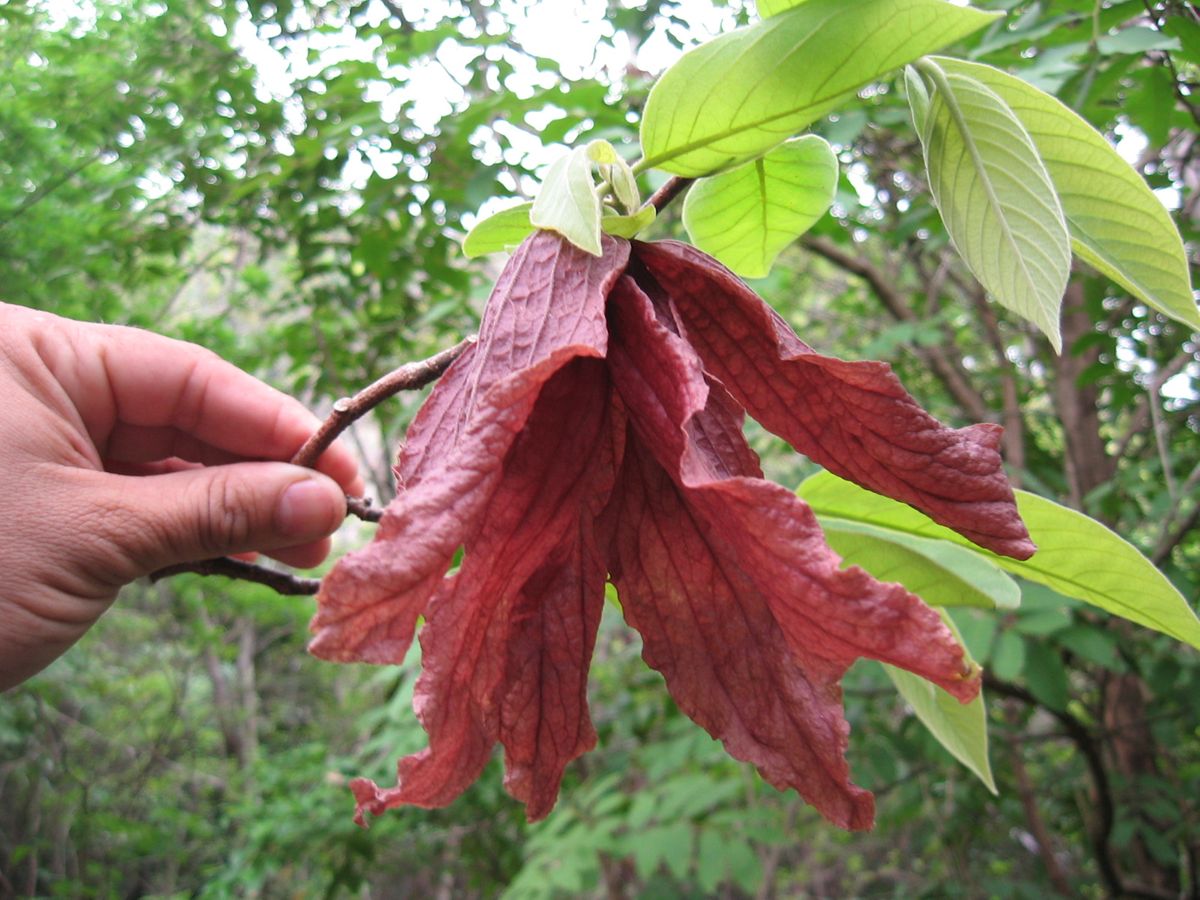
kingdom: Plantae
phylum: Tracheophyta
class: Magnoliopsida
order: Magnoliales
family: Annonaceae
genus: Sapranthus
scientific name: Sapranthus violaceus
